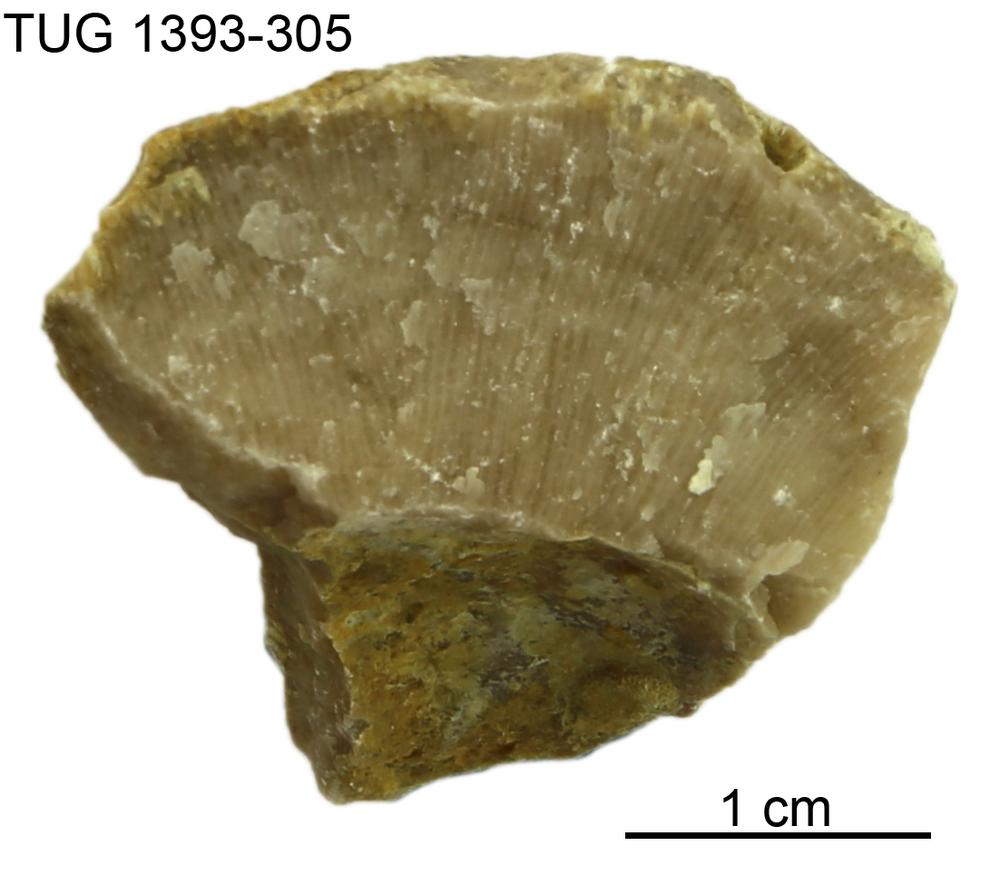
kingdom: Animalia
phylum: Bryozoa
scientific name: Bryozoa
